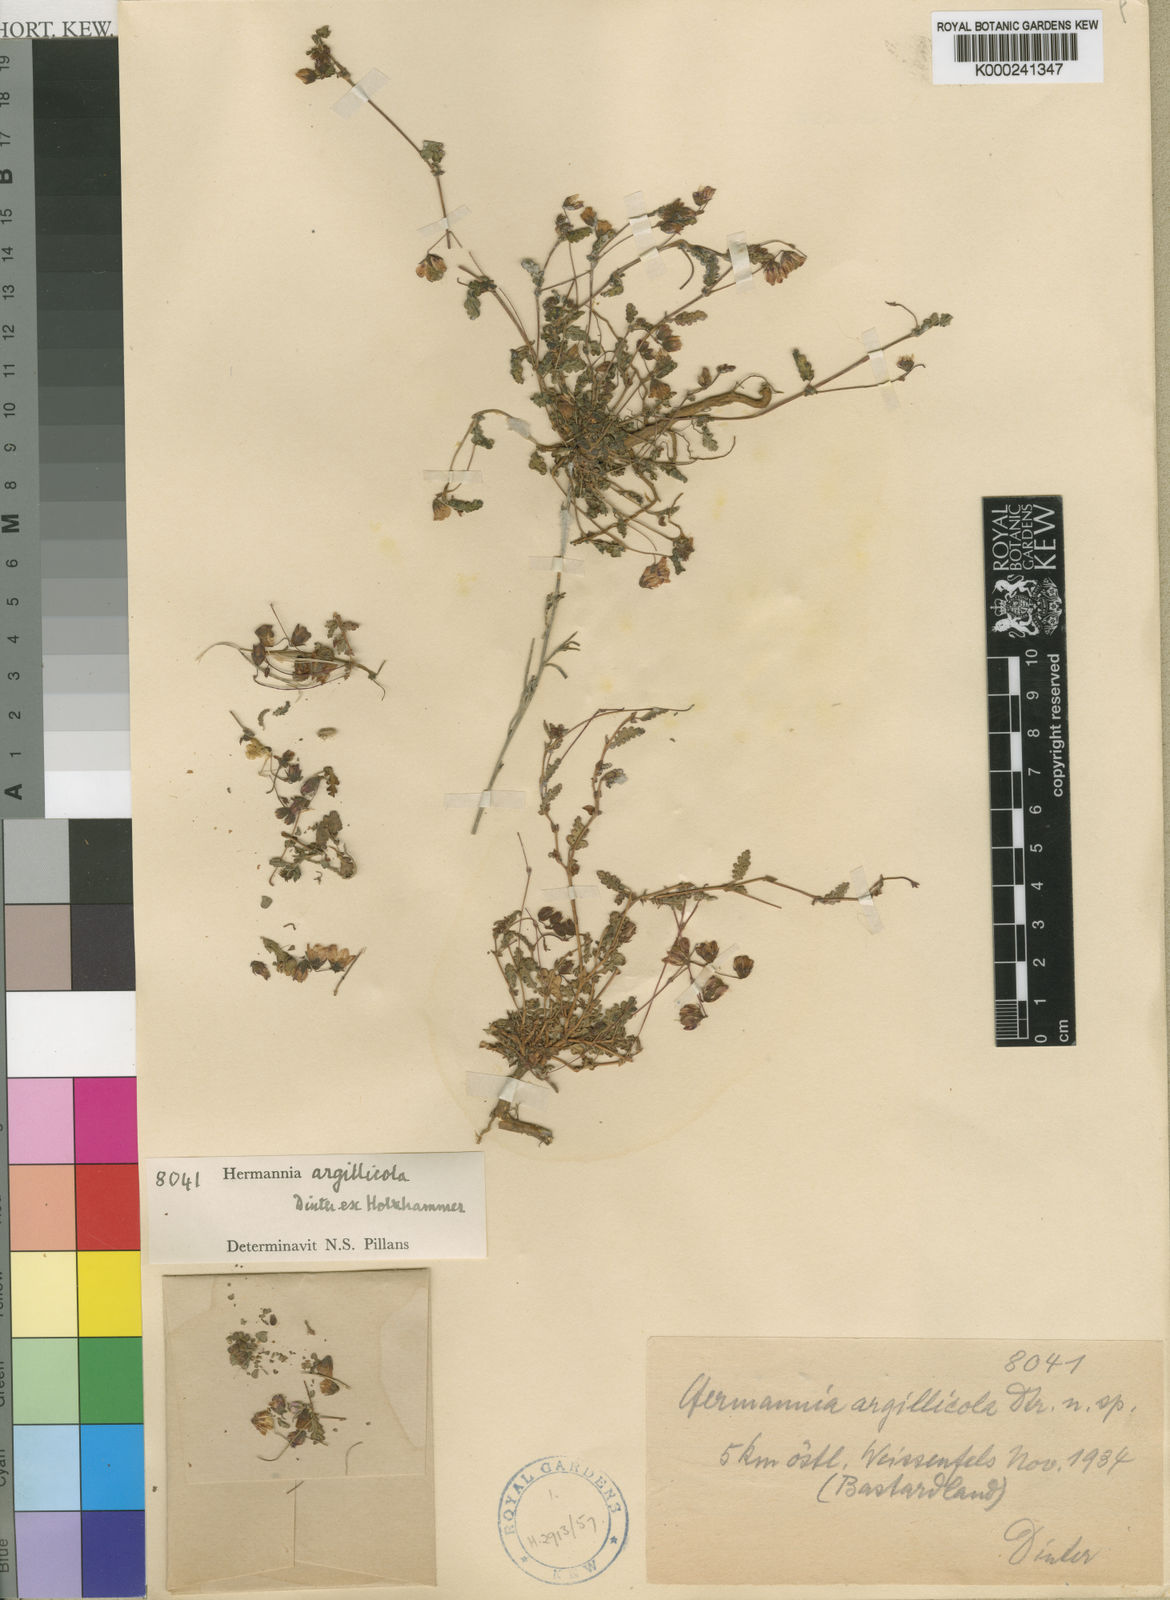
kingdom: Plantae
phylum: Tracheophyta
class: Magnoliopsida
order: Malvales
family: Malvaceae
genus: Hermannia
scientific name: Hermannia argillicola
